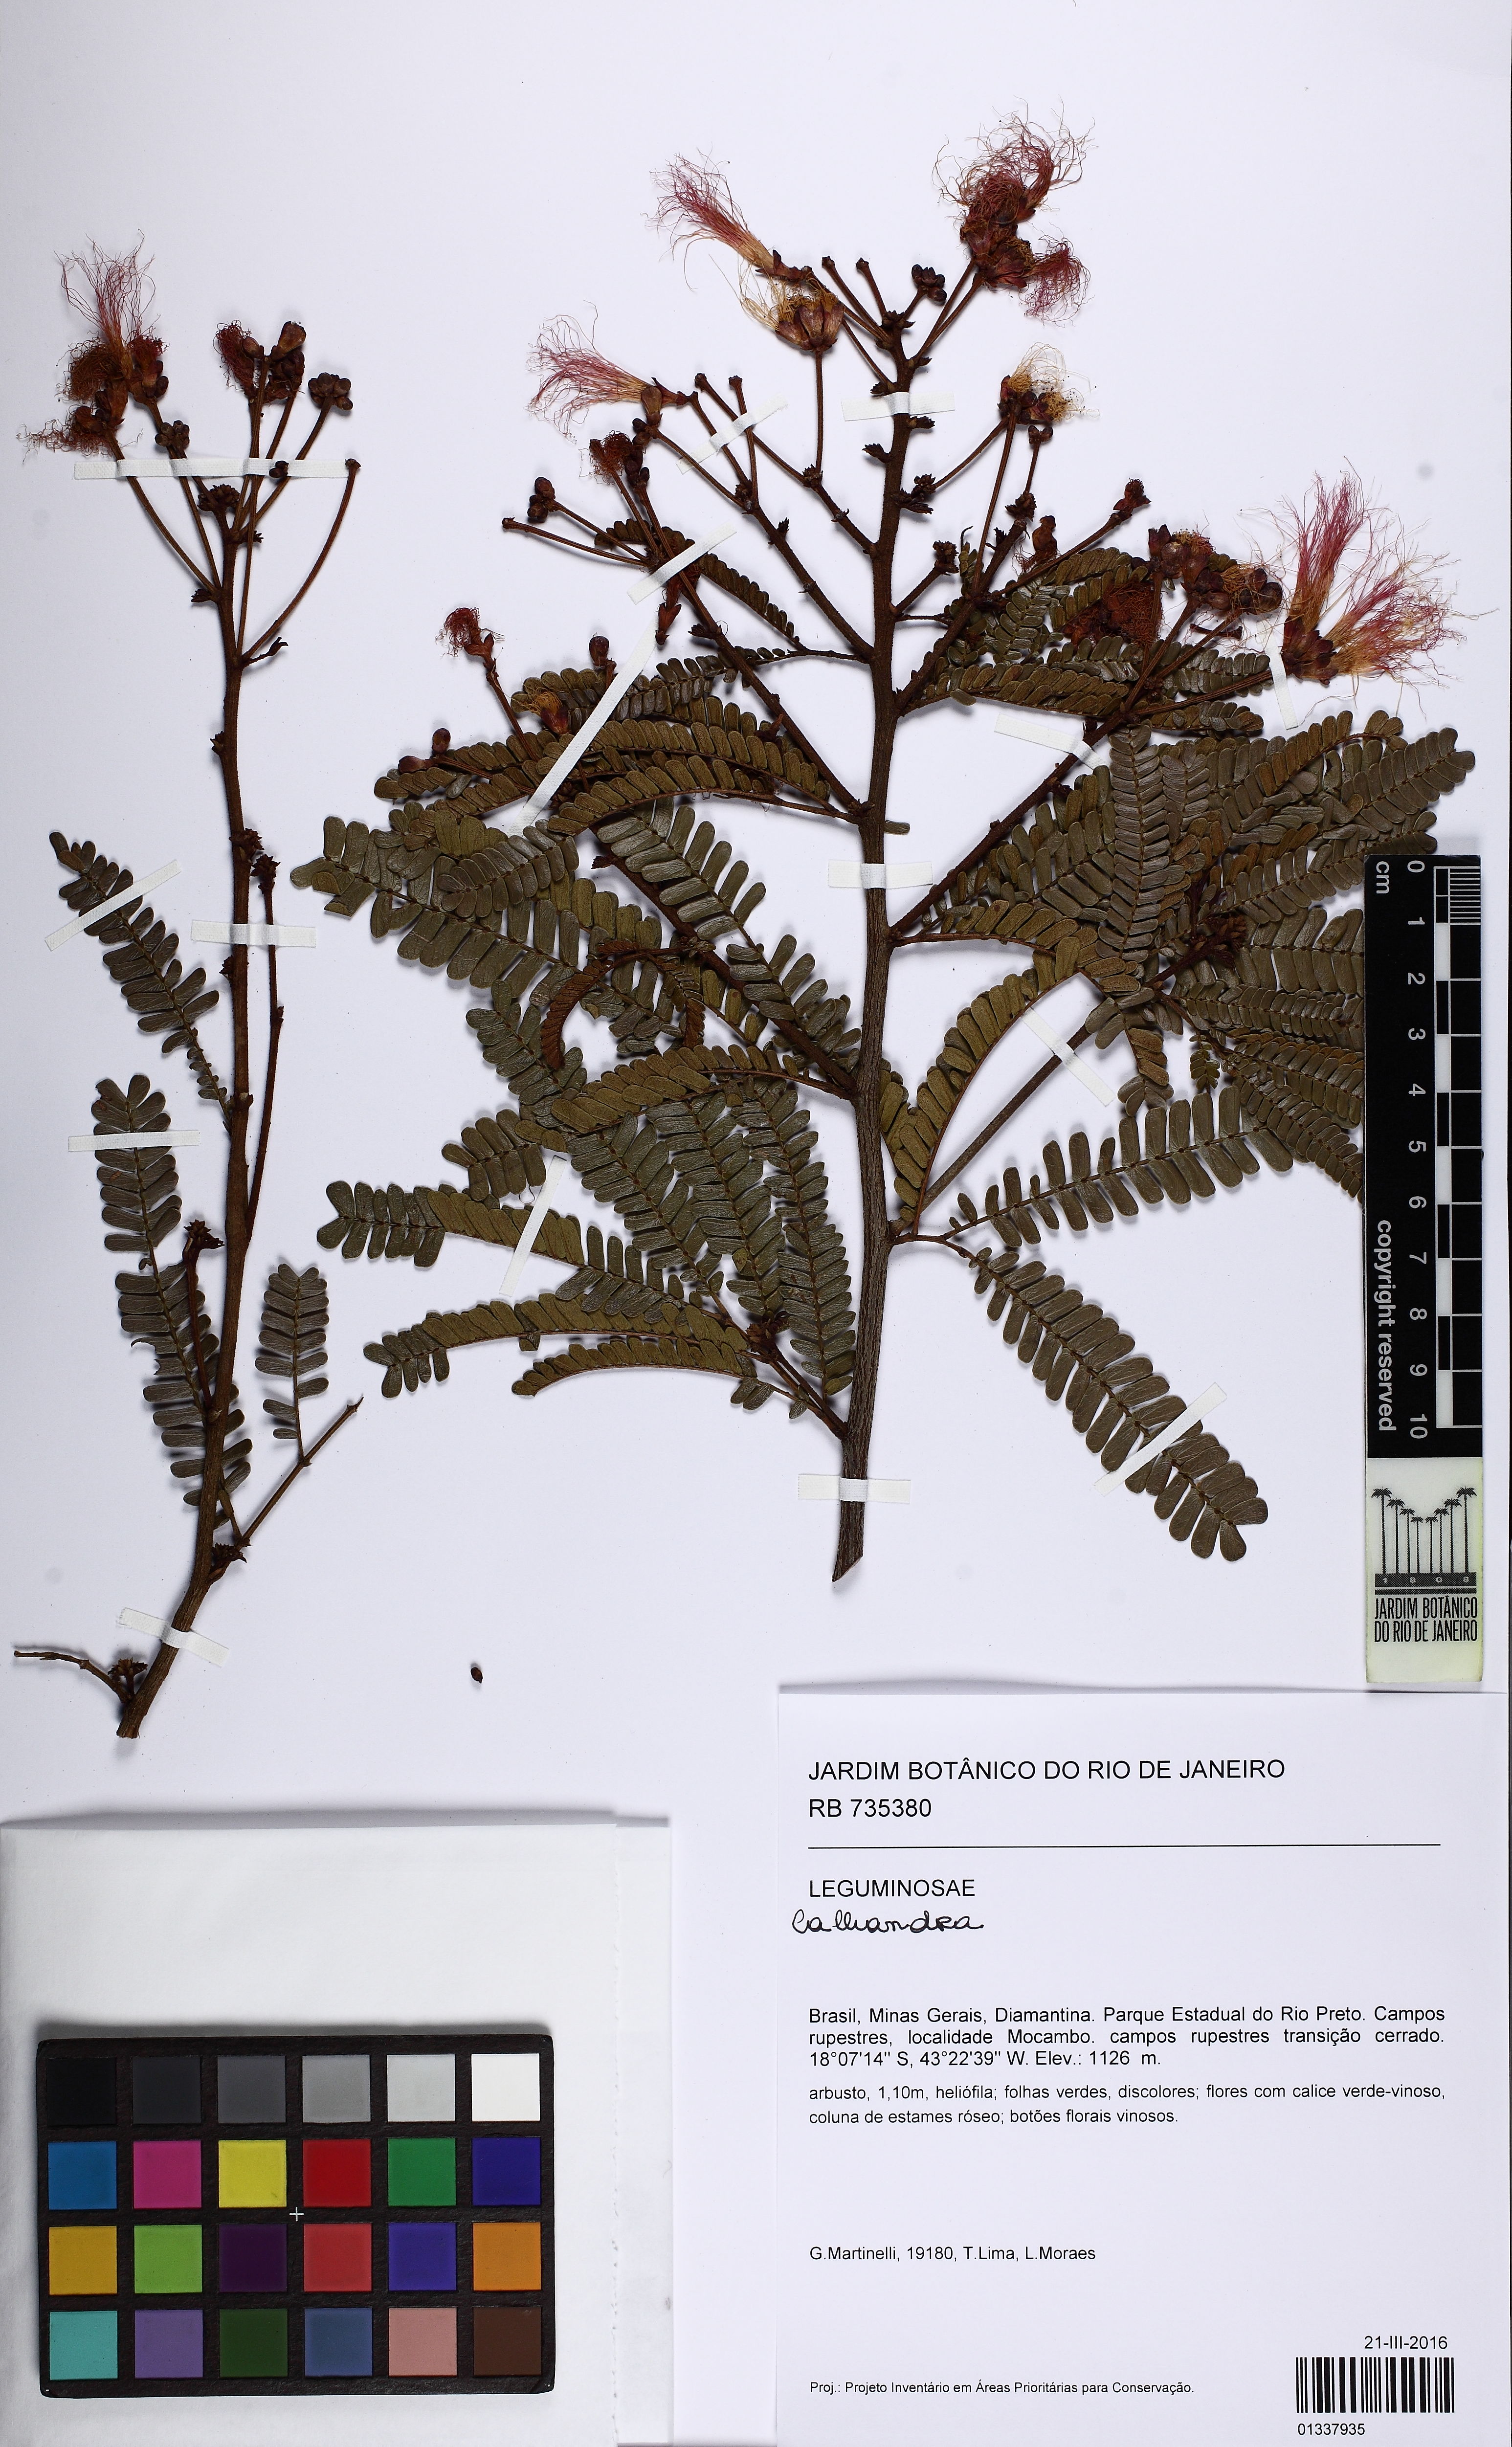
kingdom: Plantae
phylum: Tracheophyta
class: Magnoliopsida
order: Fabales
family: Fabaceae
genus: Calliandra
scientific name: Calliandra
